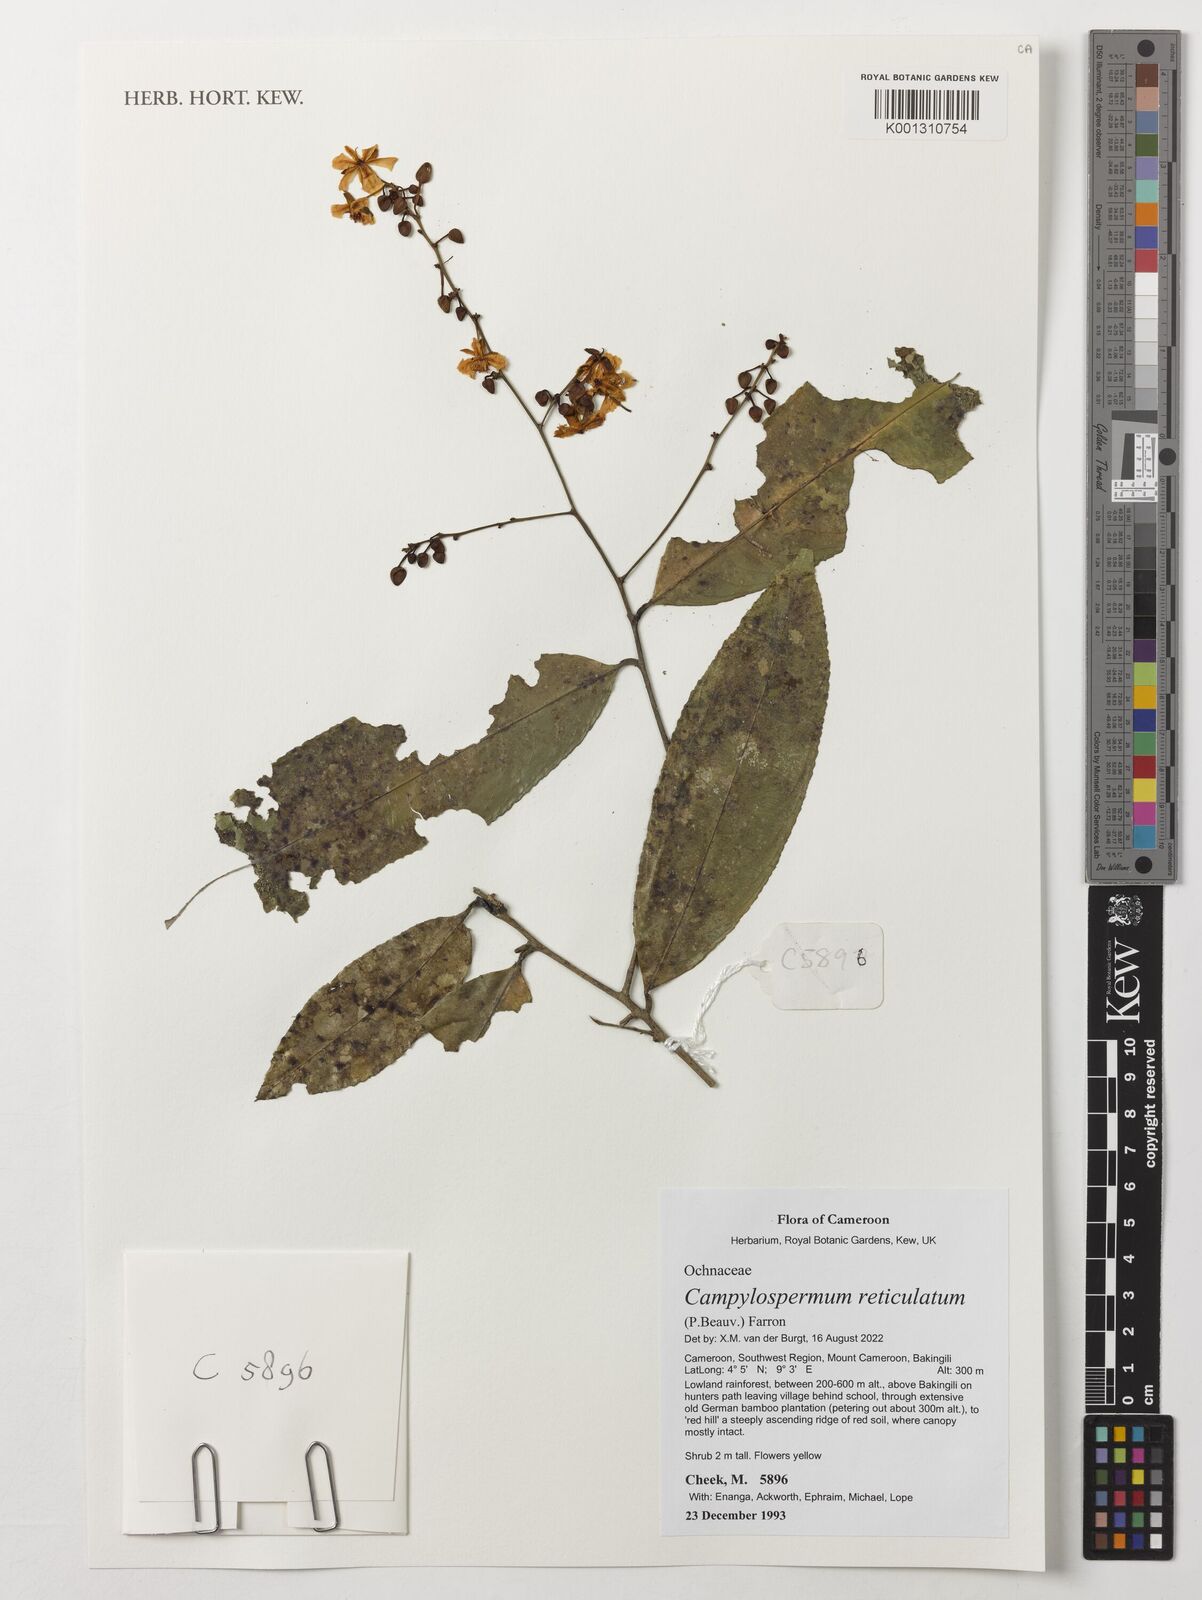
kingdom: Plantae
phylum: Tracheophyta
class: Magnoliopsida
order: Malpighiales
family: Ochnaceae
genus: Campylospermum
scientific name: Campylospermum reticulatum
